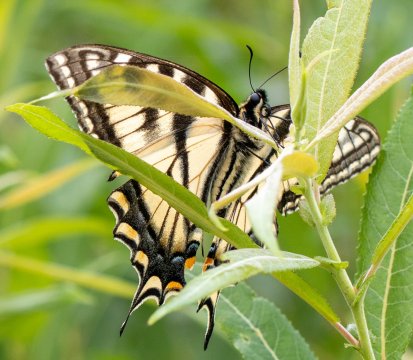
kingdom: Animalia
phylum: Arthropoda
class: Insecta
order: Lepidoptera
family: Papilionidae
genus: Pterourus
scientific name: Pterourus canadensis
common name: Canadian Tiger Swallowtail
